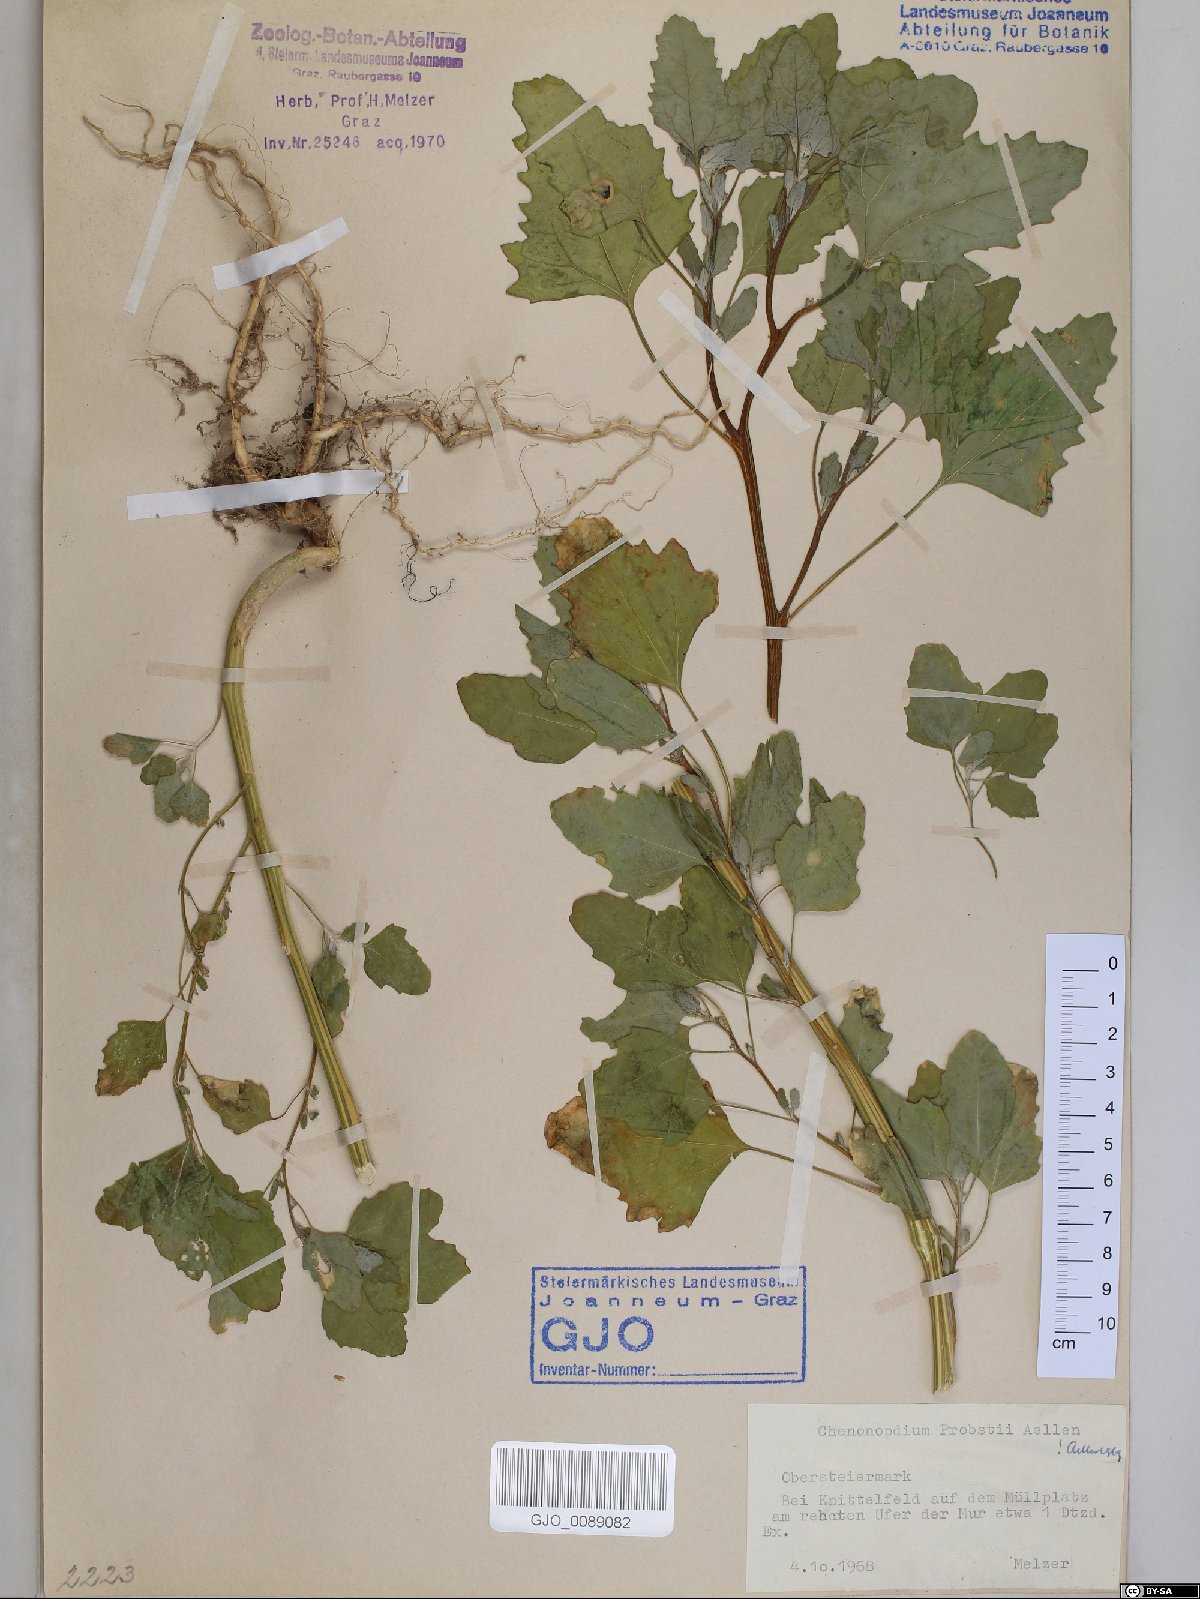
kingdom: Plantae
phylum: Tracheophyta
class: Magnoliopsida
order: Caryophyllales
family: Amaranthaceae
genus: Chenopodium
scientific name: Chenopodium probstii
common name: Probst's goosefoot
